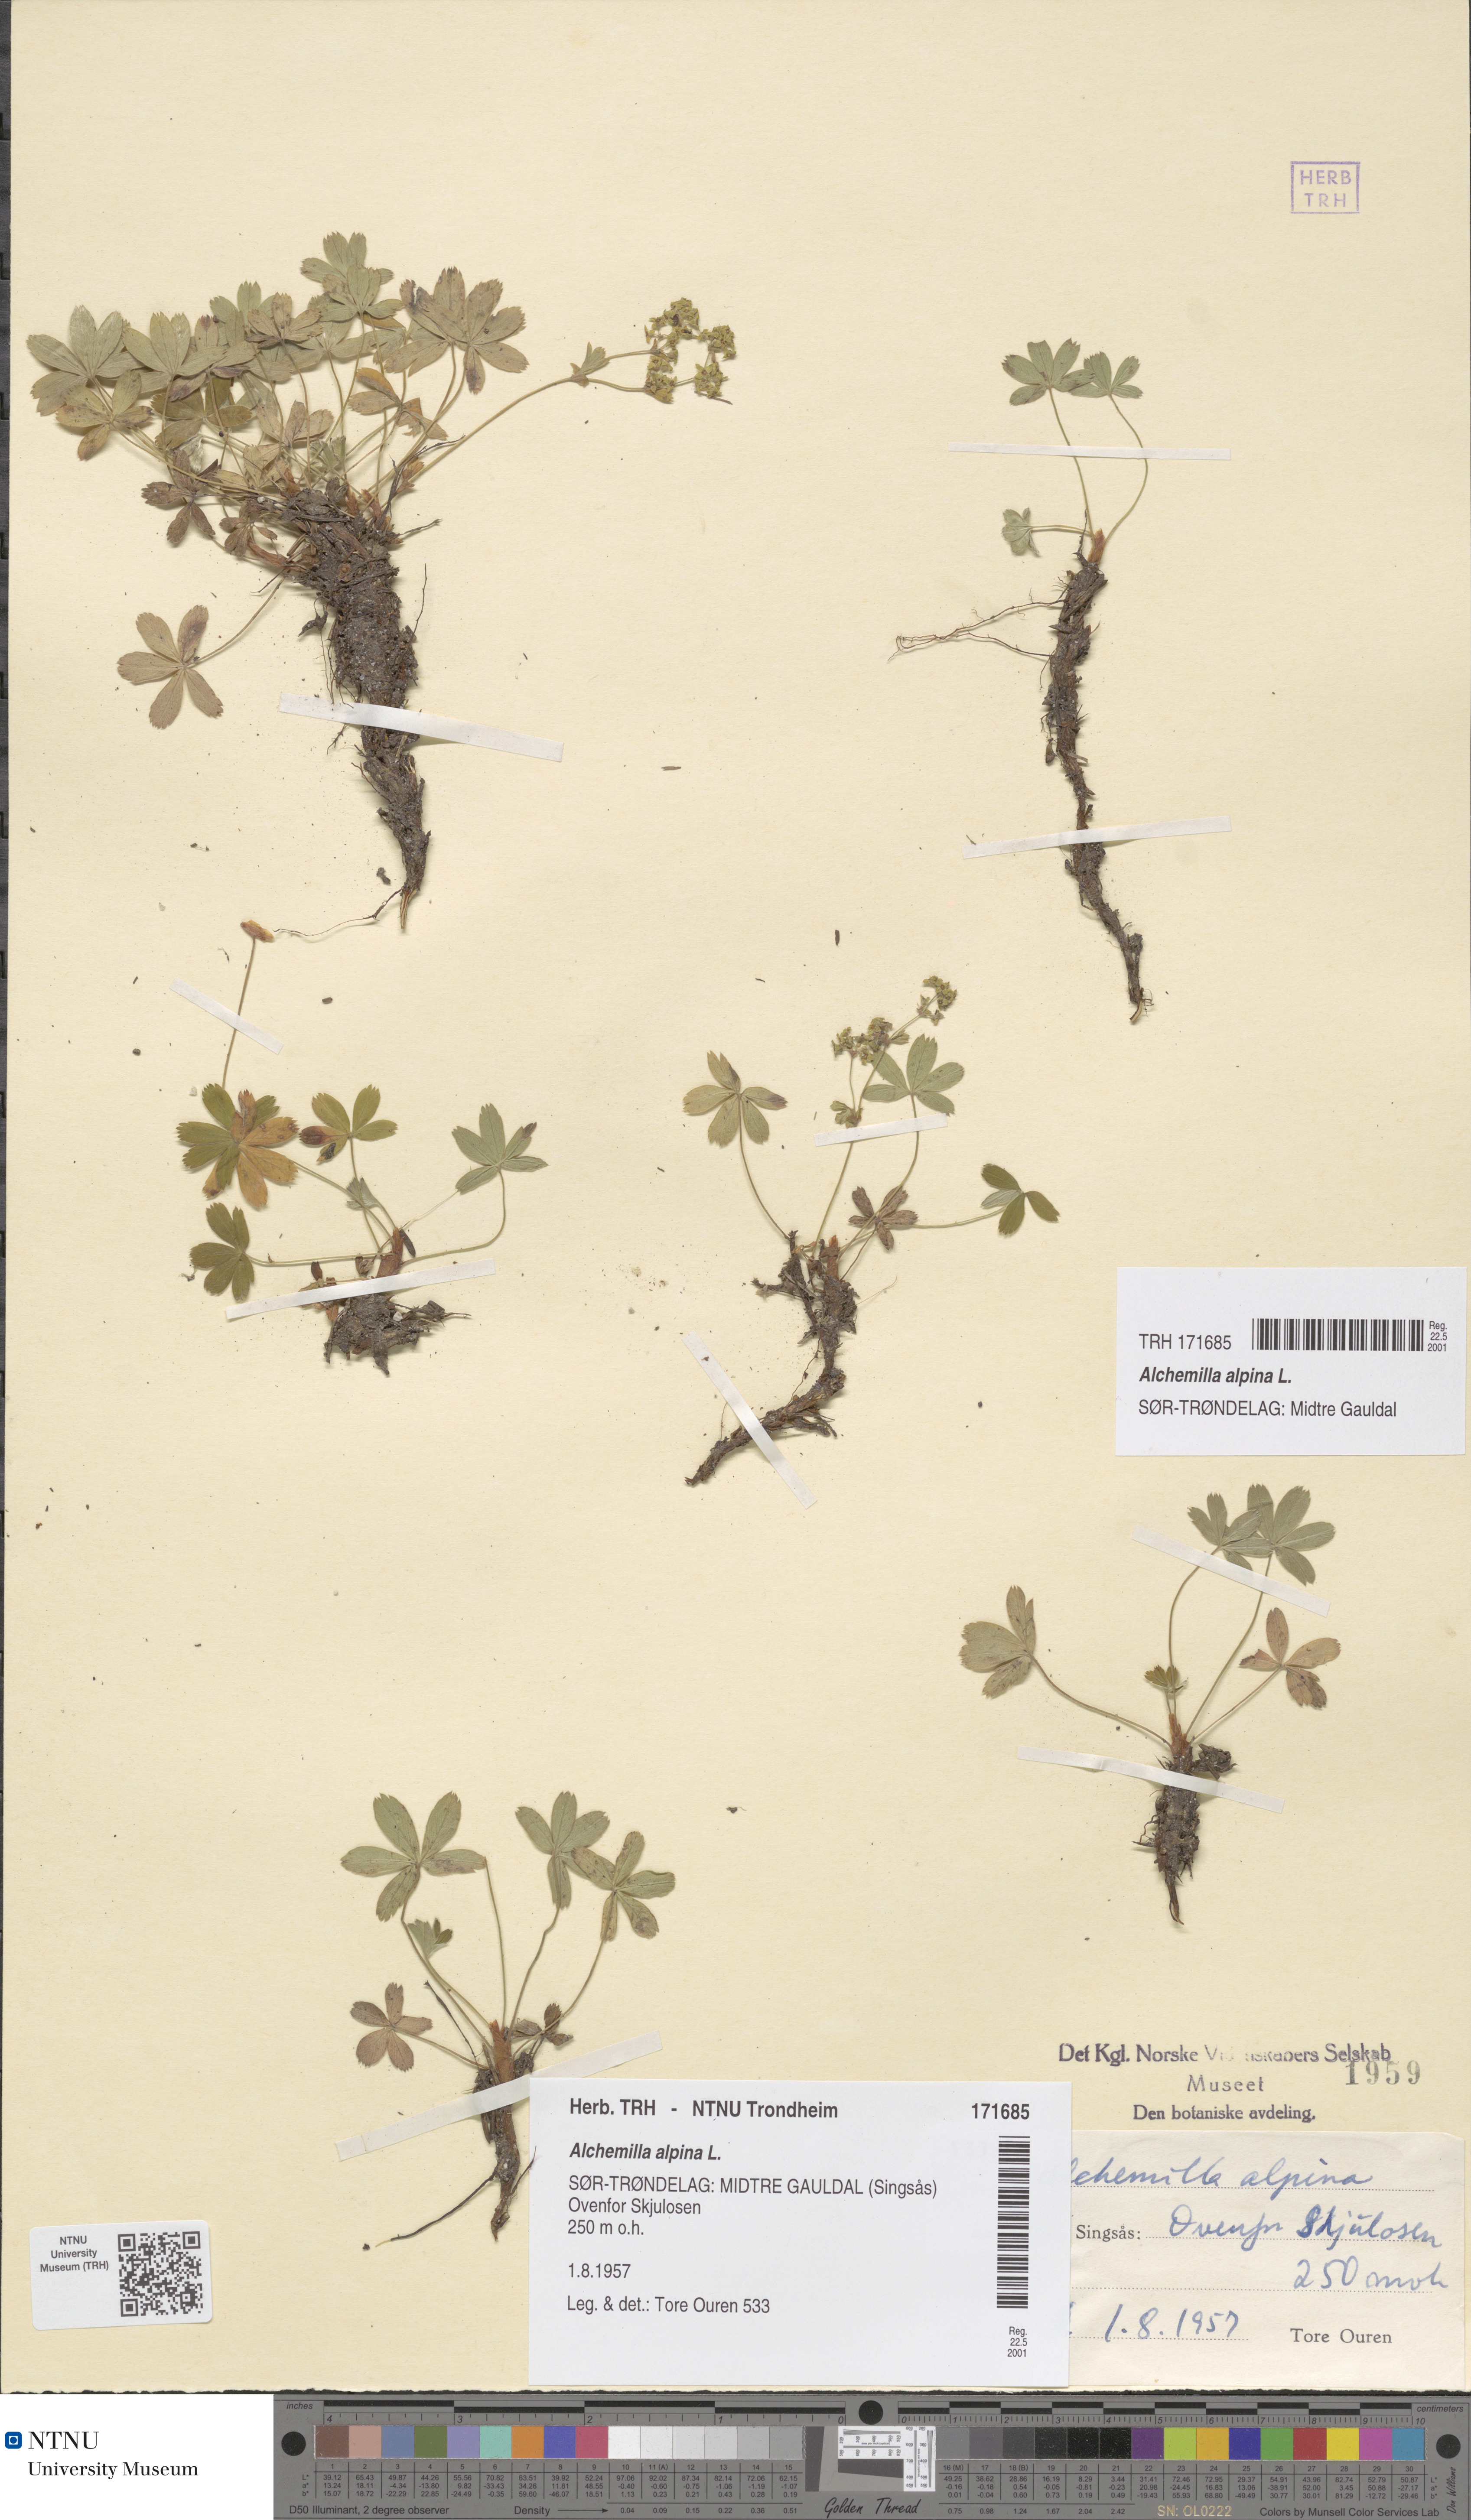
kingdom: Plantae
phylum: Tracheophyta
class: Magnoliopsida
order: Rosales
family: Rosaceae
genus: Alchemilla
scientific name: Alchemilla alpina
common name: Alpine lady's-mantle
